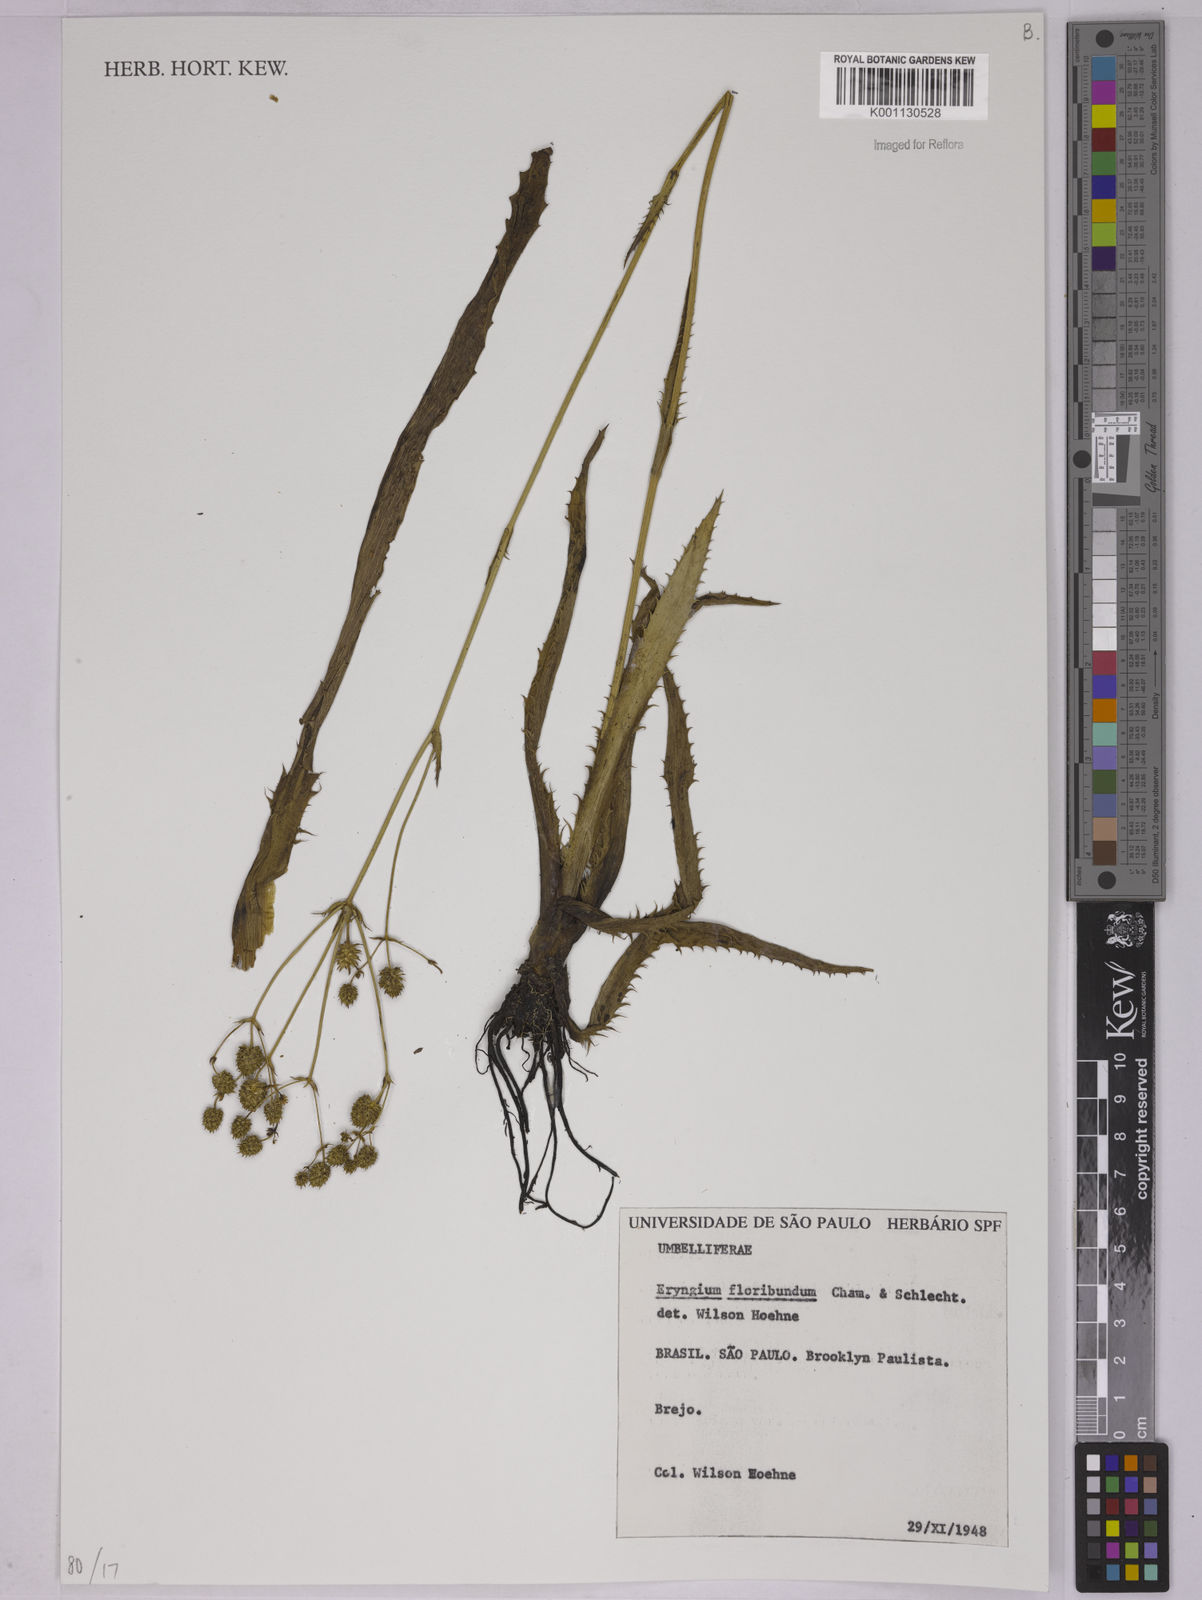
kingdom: Plantae
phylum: Tracheophyta
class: Magnoliopsida
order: Apiales
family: Apiaceae
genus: Eryngium
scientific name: Eryngium floribundum
